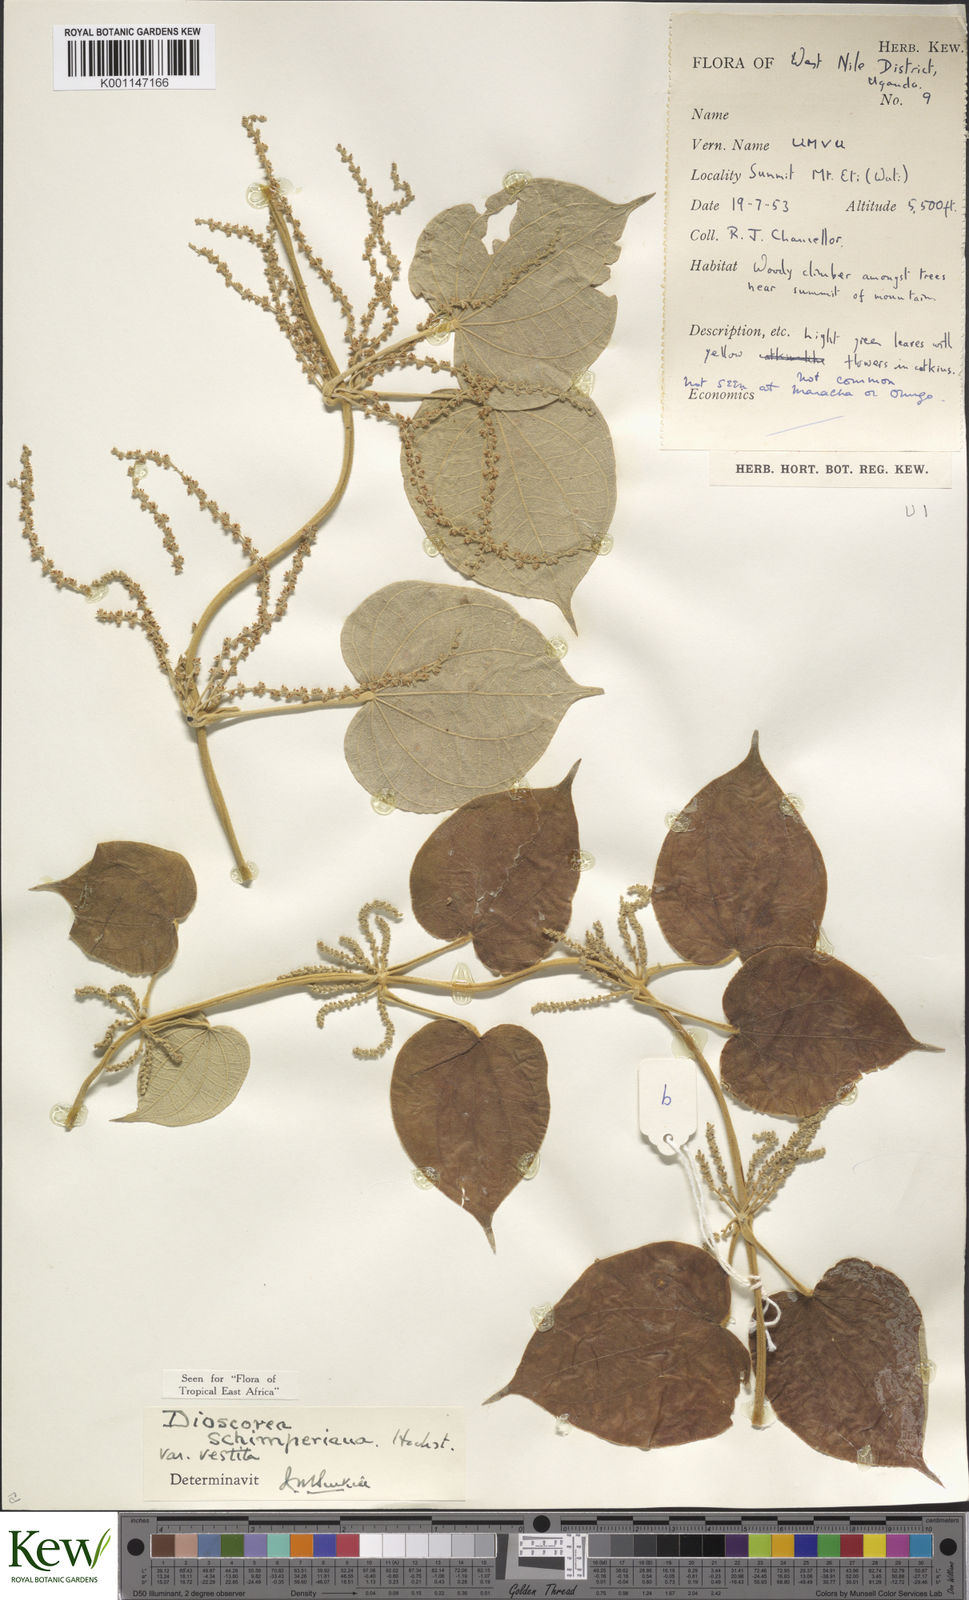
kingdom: Plantae
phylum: Tracheophyta
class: Liliopsida
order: Dioscoreales
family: Dioscoreaceae
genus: Dioscorea
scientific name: Dioscorea schimperiana
